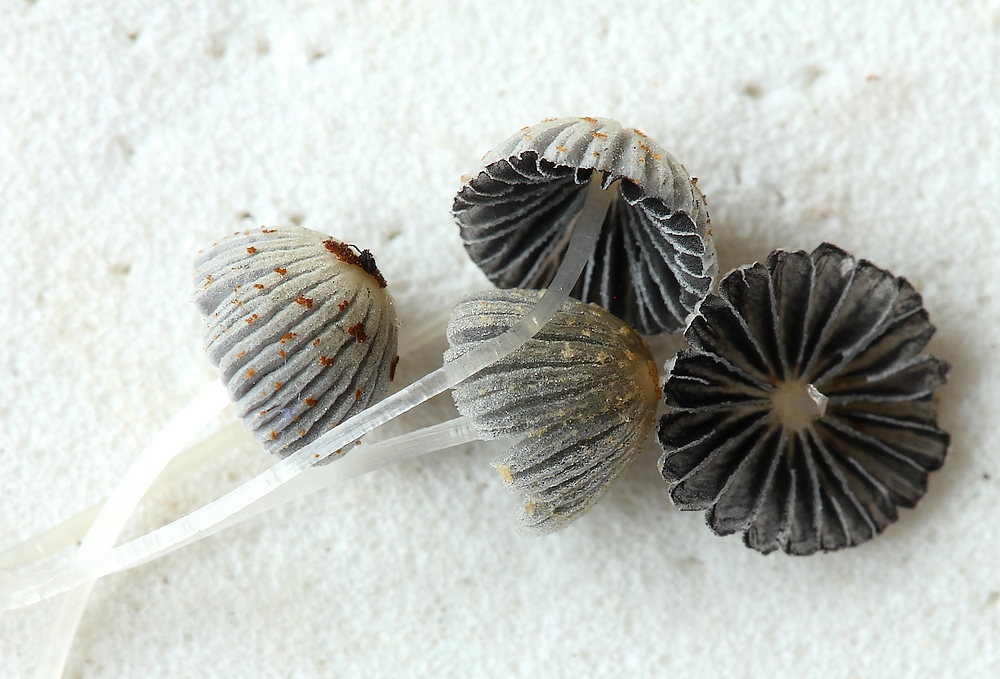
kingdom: Fungi
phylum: Basidiomycota
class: Agaricomycetes
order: Agaricales
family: Psathyrellaceae
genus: Coprinellus
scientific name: Coprinellus curtus
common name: rustprikket blækhat
